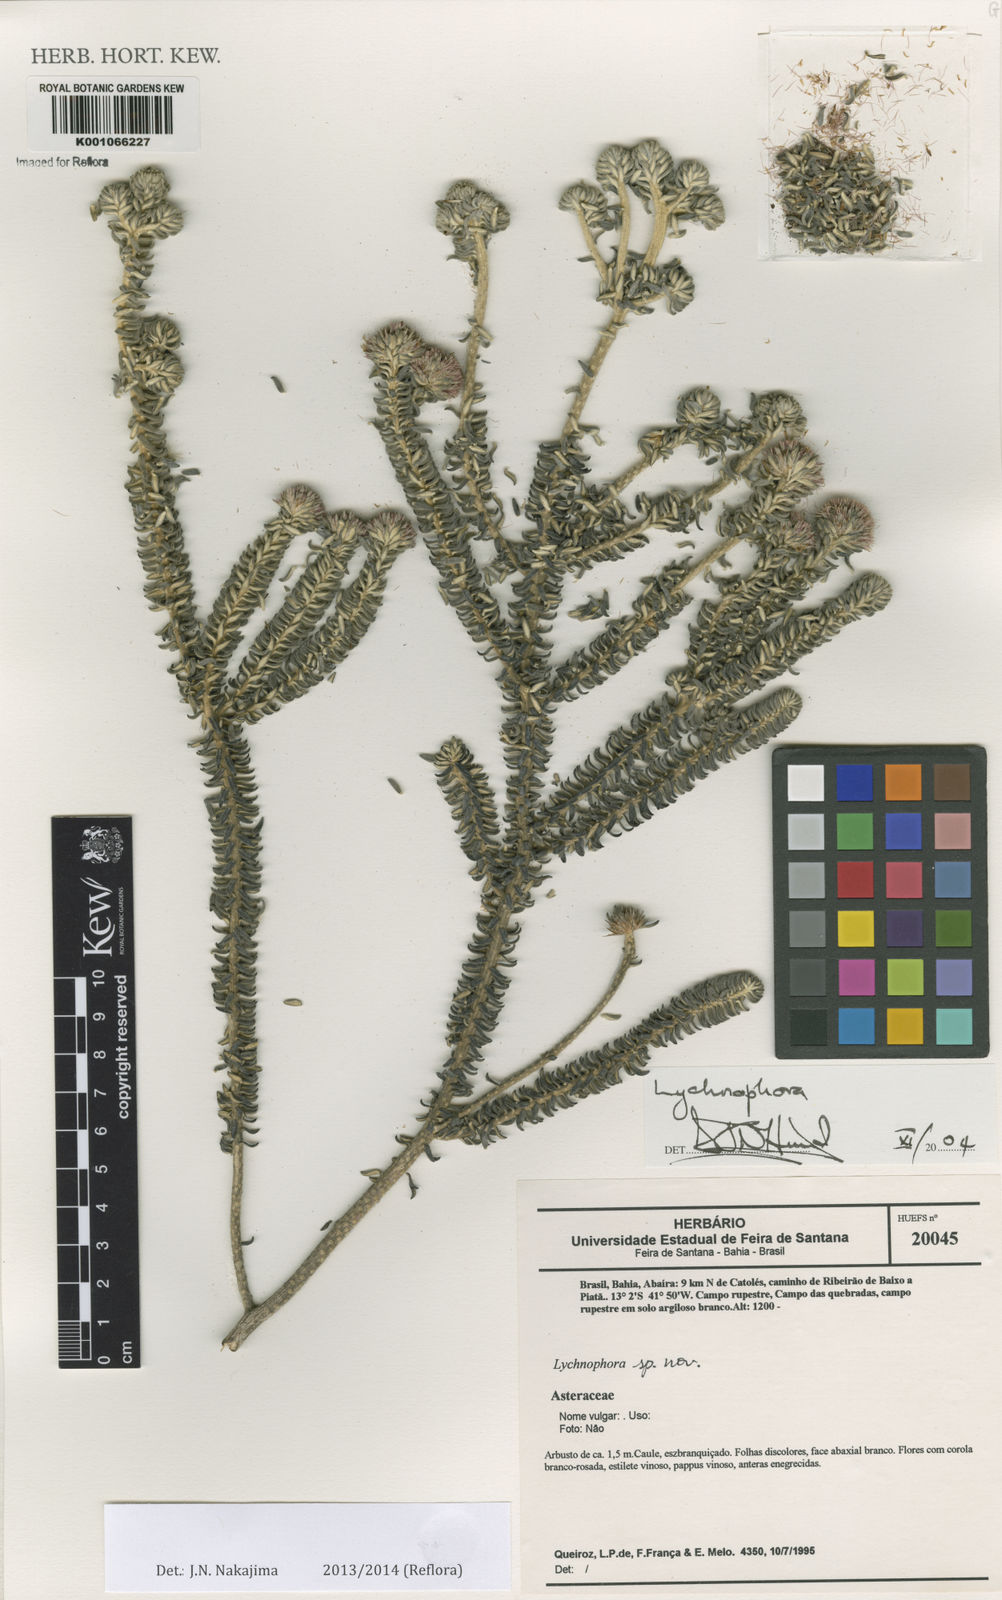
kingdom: Plantae
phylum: Tracheophyta
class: Magnoliopsida
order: Asterales
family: Asteraceae
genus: Lychnophora
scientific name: Lychnophora phylicifolia
